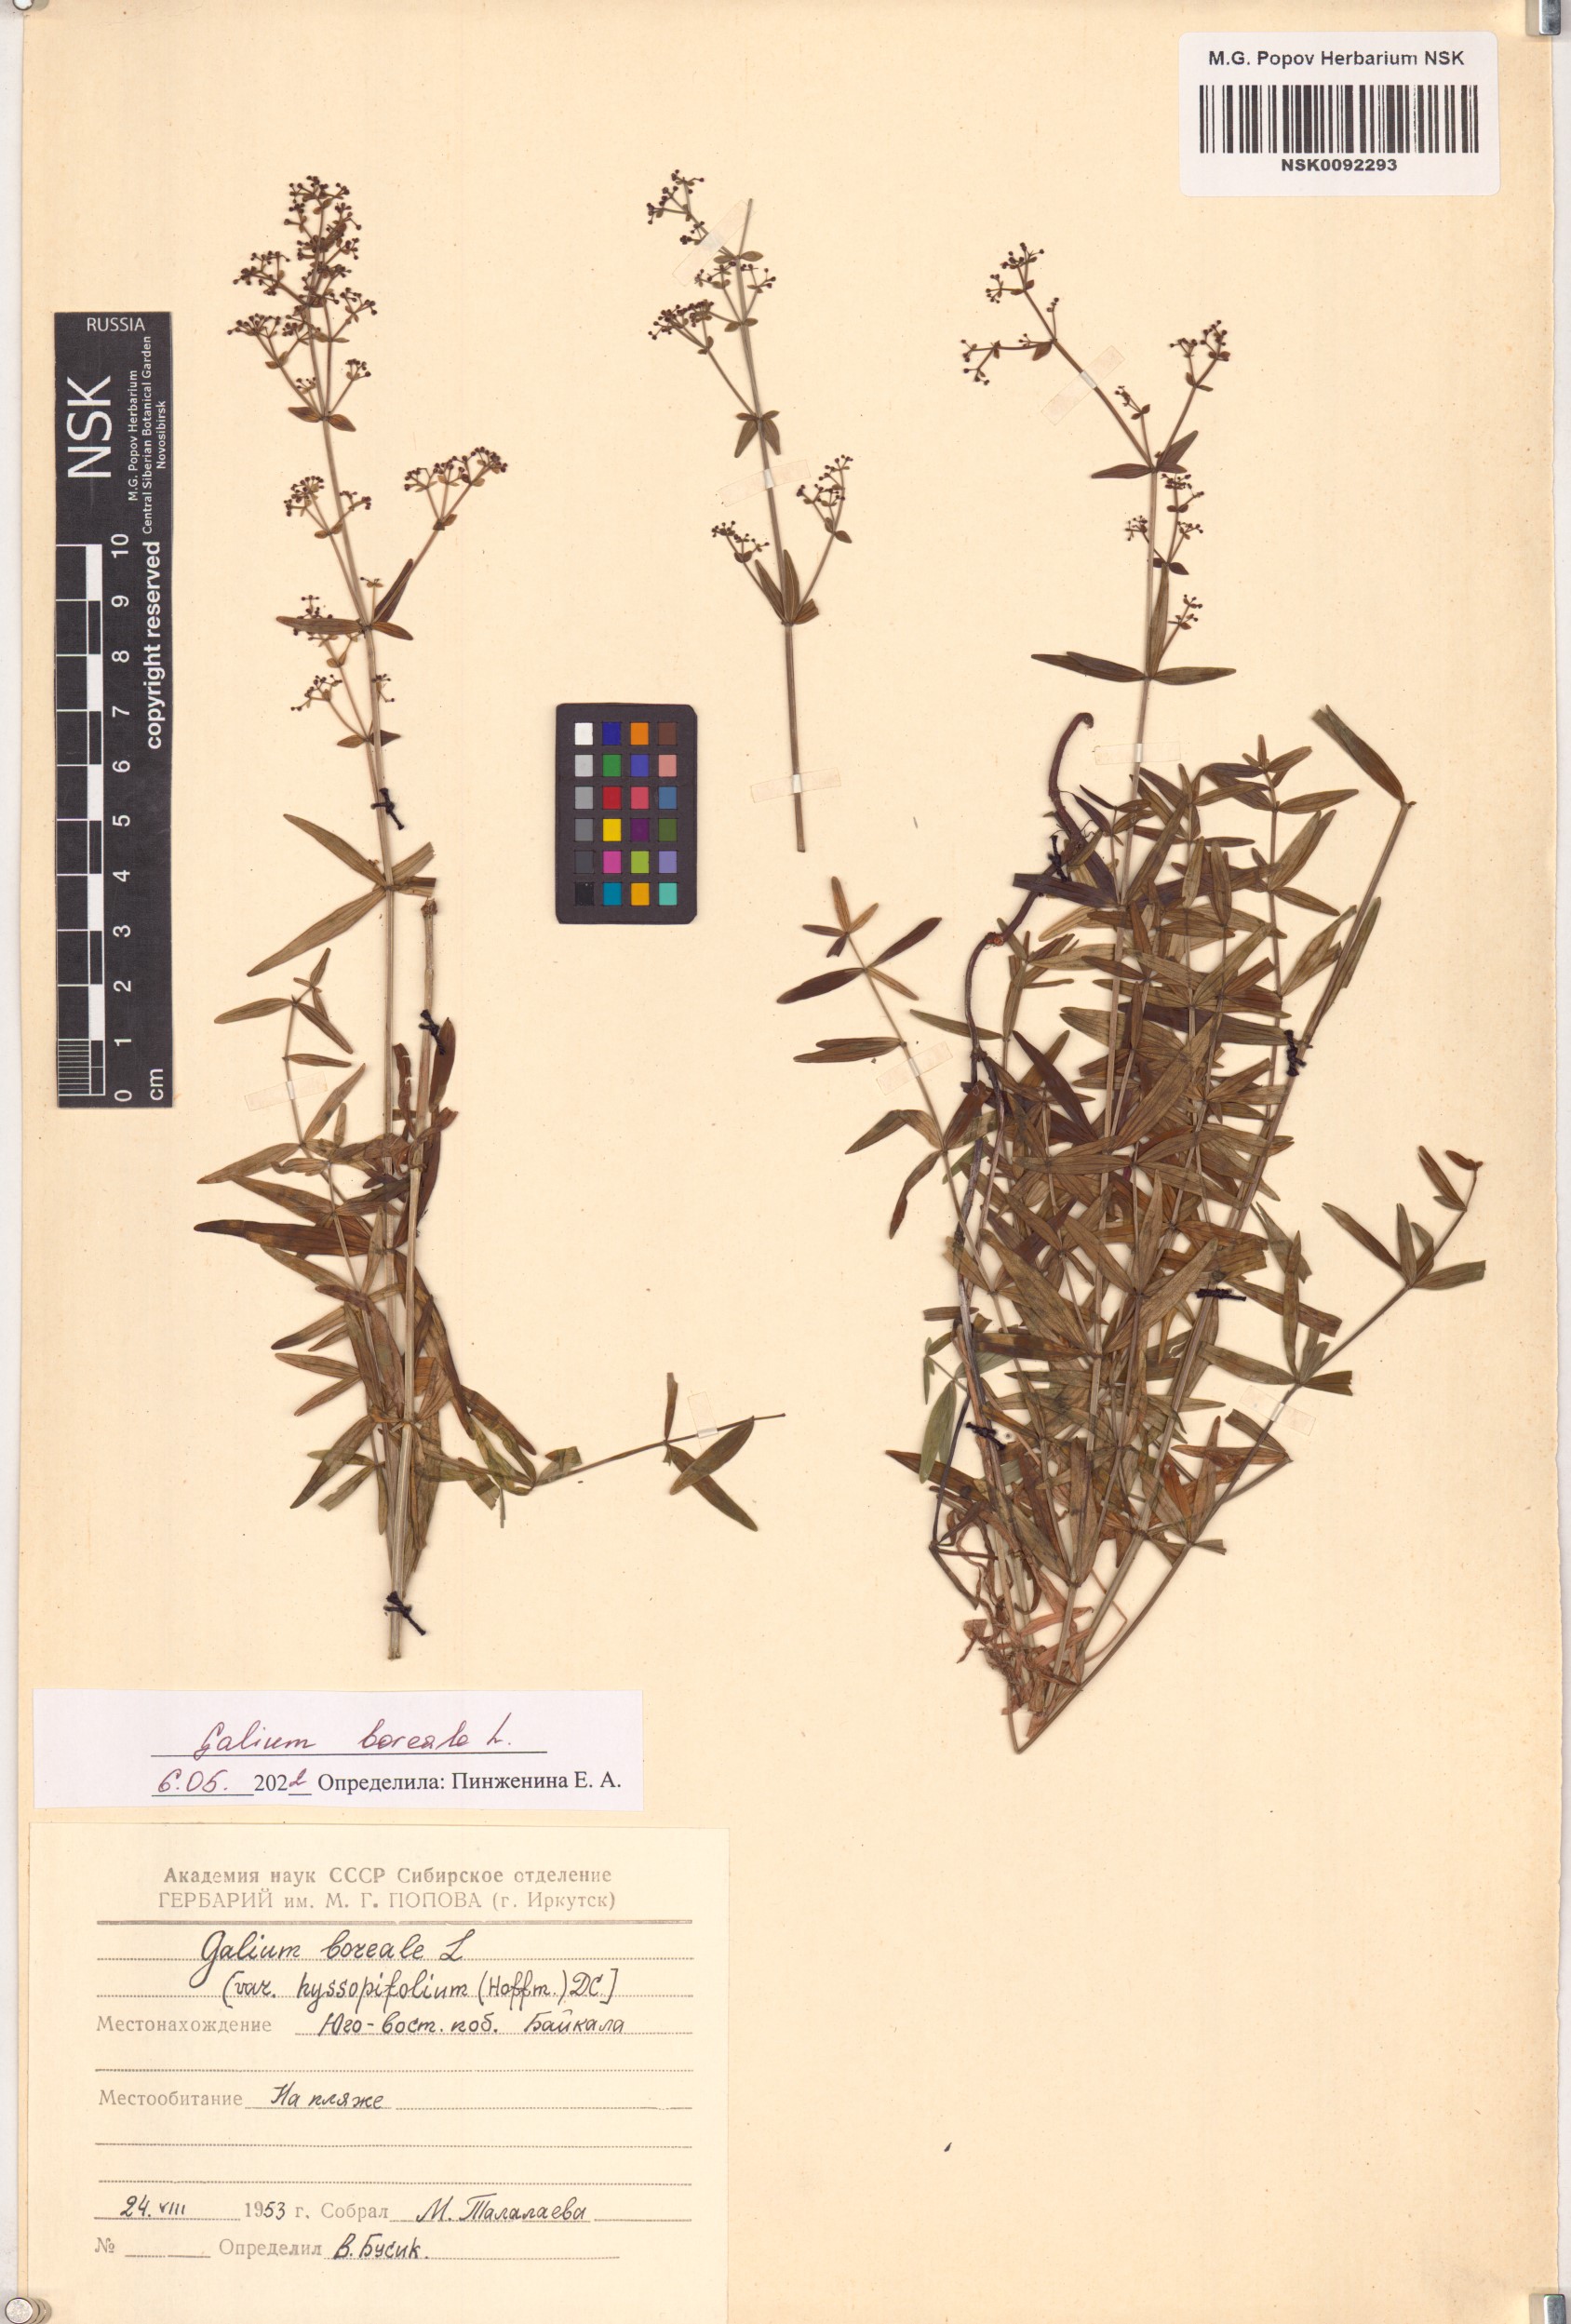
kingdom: Plantae
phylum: Tracheophyta
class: Magnoliopsida
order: Gentianales
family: Rubiaceae
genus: Galium
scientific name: Galium boreale
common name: Northern bedstraw
